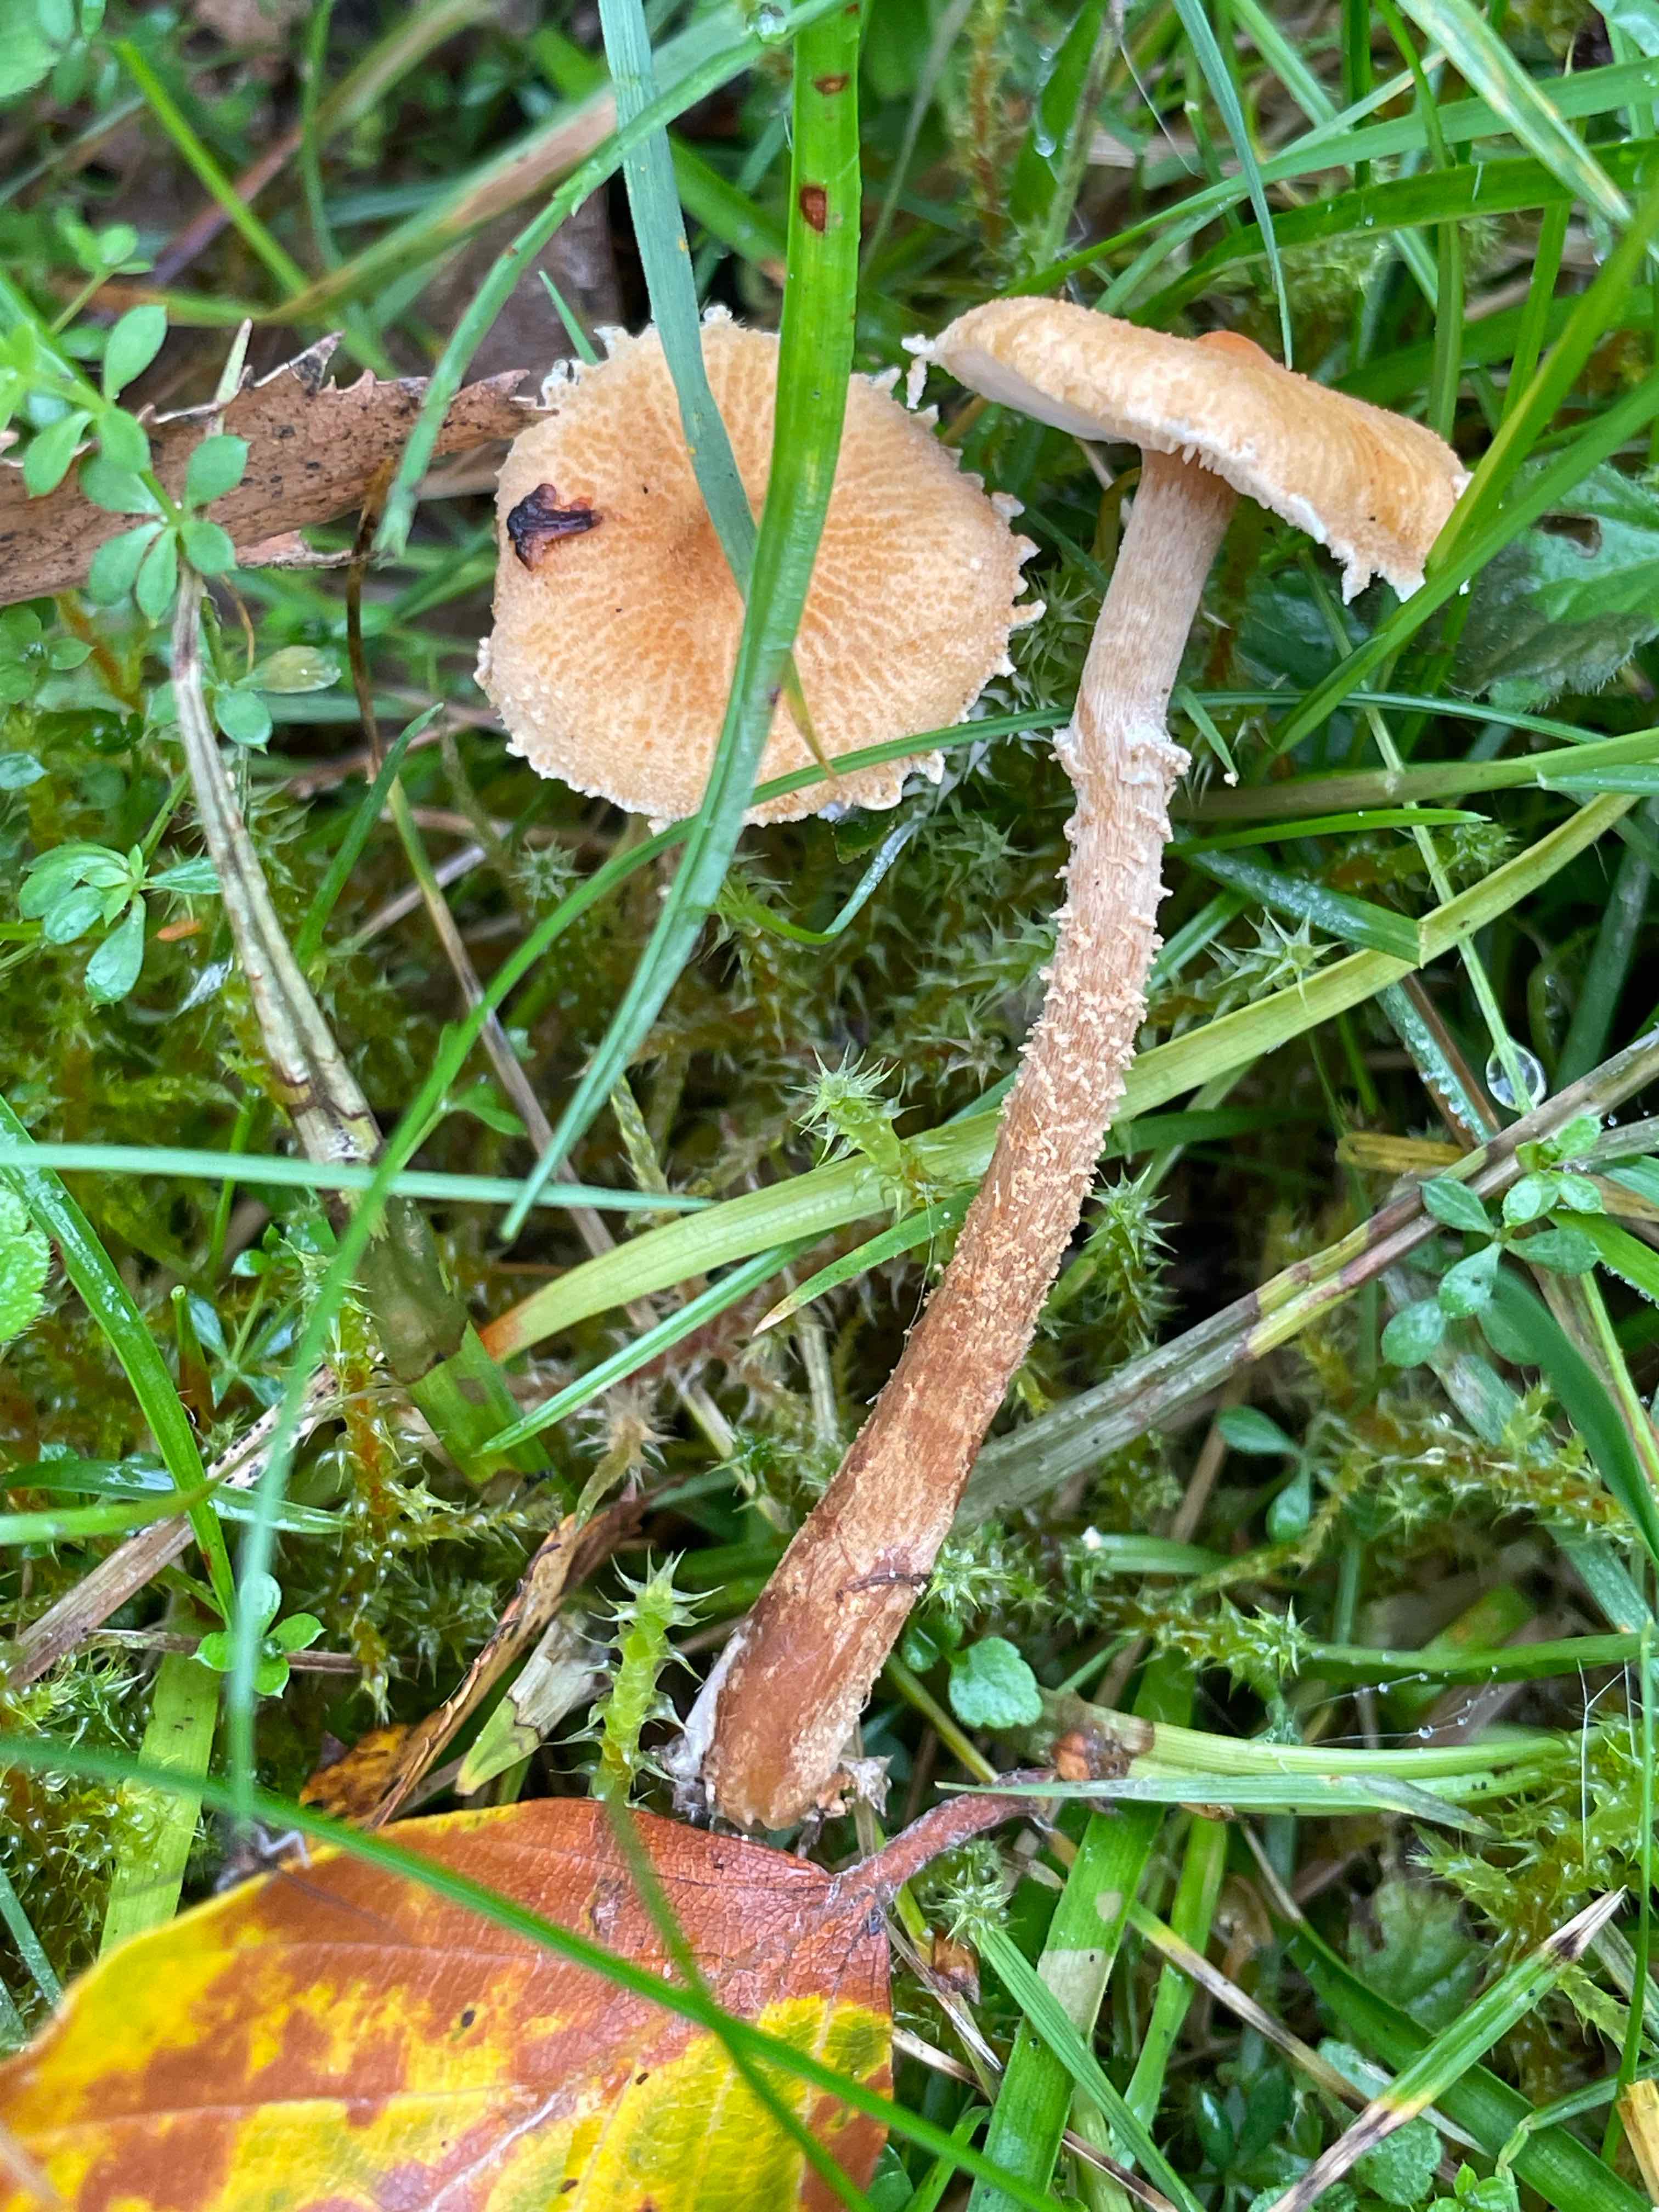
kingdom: Fungi
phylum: Basidiomycota
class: Agaricomycetes
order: Agaricales
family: Tricholomataceae
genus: Cystoderma
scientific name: Cystoderma amianthinum
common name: okkergul grynhat
